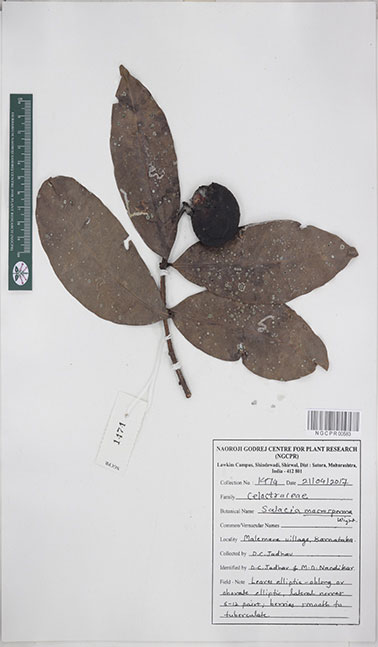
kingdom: Plantae
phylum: Tracheophyta
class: Magnoliopsida
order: Celastrales
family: Celastraceae
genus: Salacia
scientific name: Salacia macrosperma
